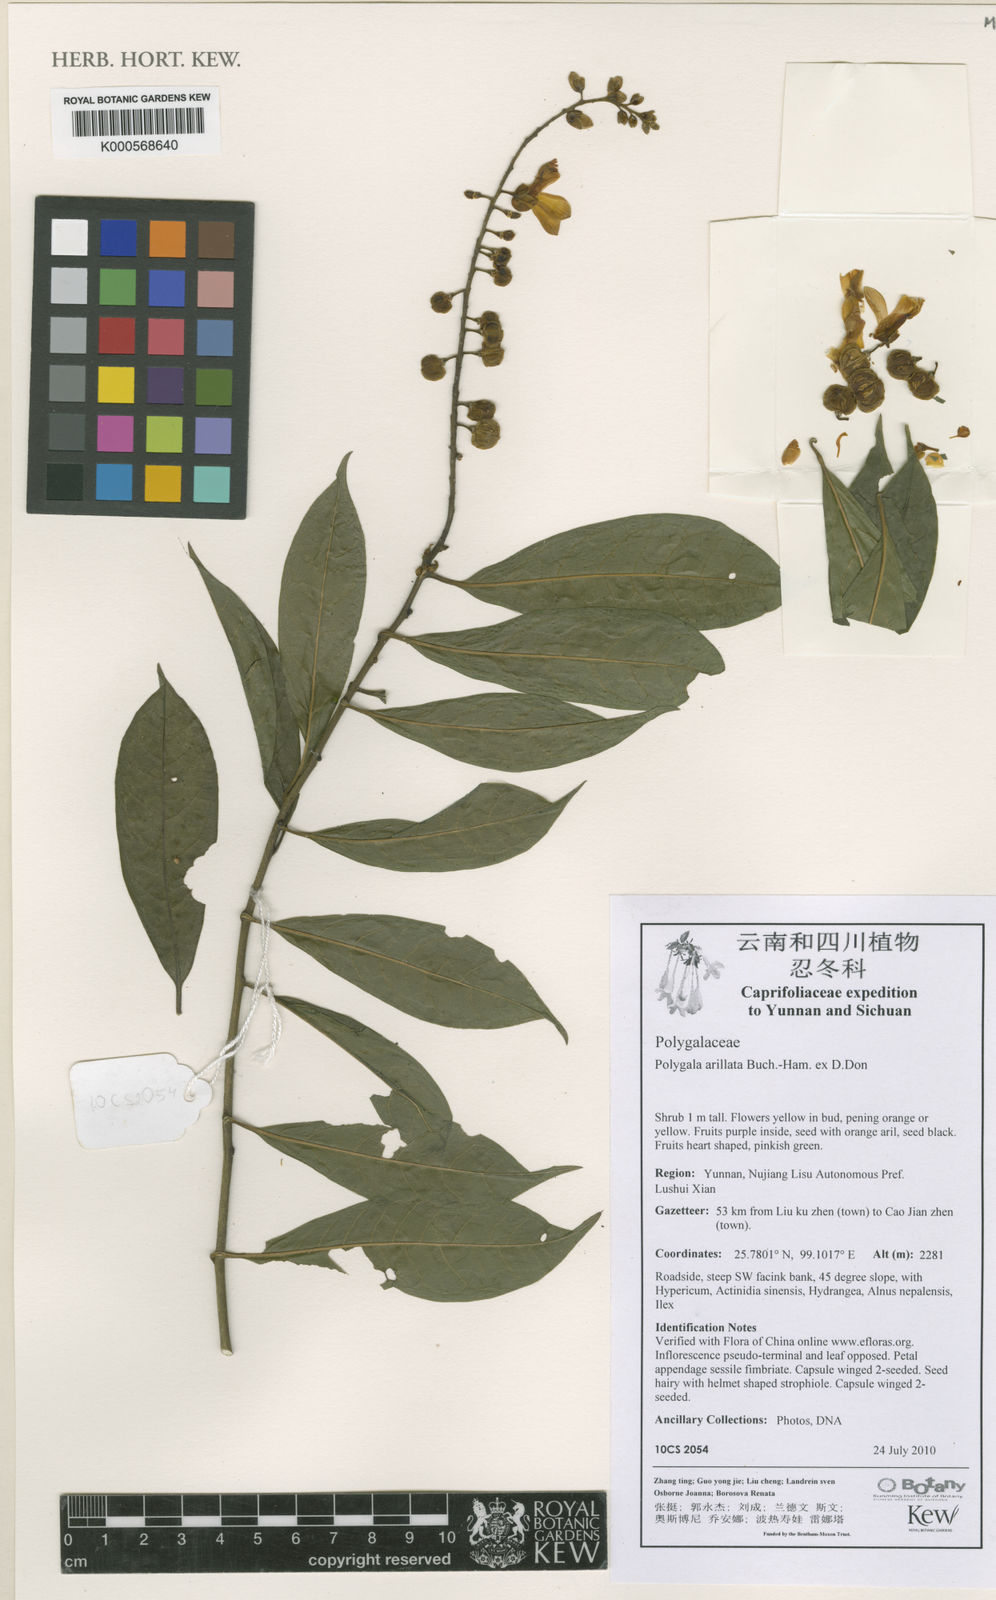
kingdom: Plantae
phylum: Tracheophyta
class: Magnoliopsida
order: Fabales
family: Polygalaceae
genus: Polygala
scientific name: Polygala arillata
